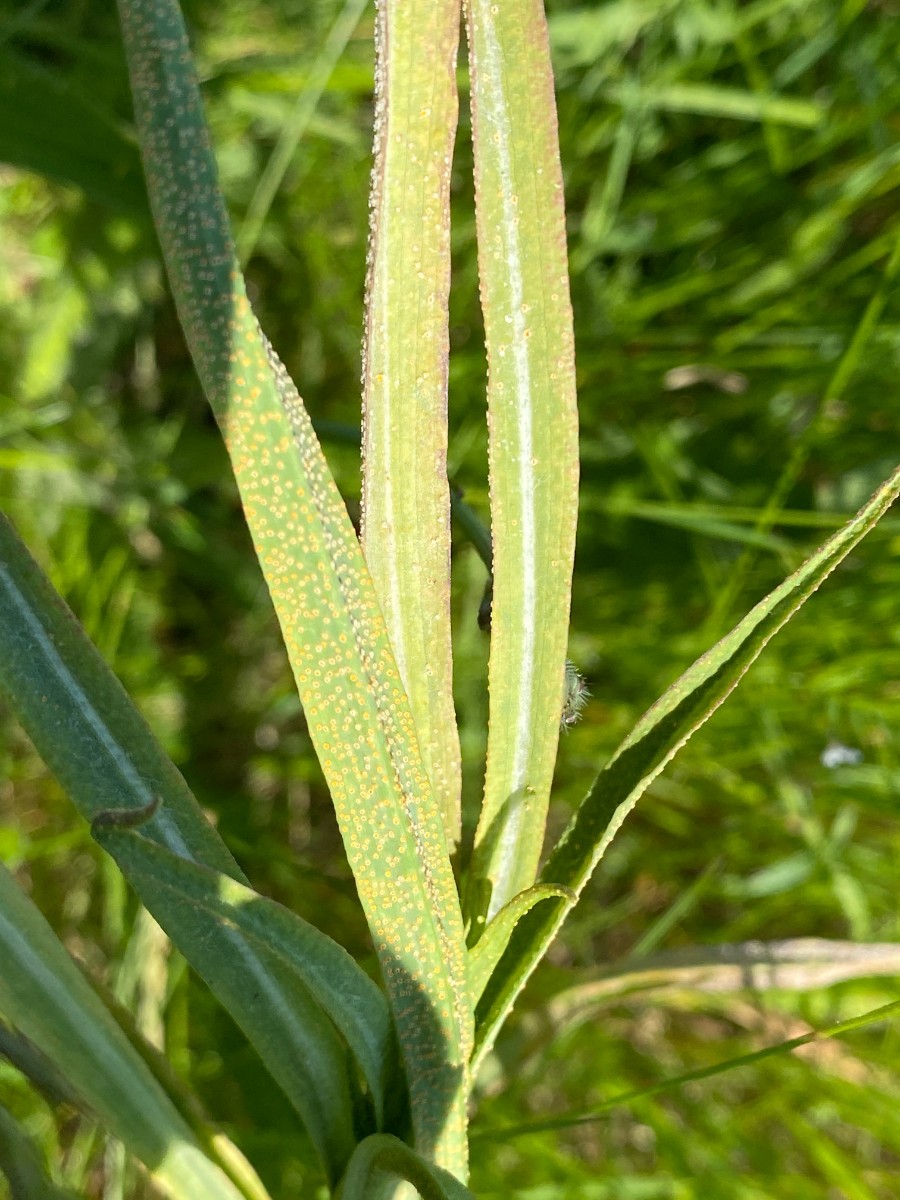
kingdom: Fungi
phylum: Basidiomycota
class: Pucciniomycetes
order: Pucciniales
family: Pucciniaceae
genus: Puccinia
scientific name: Puccinia hysterium
